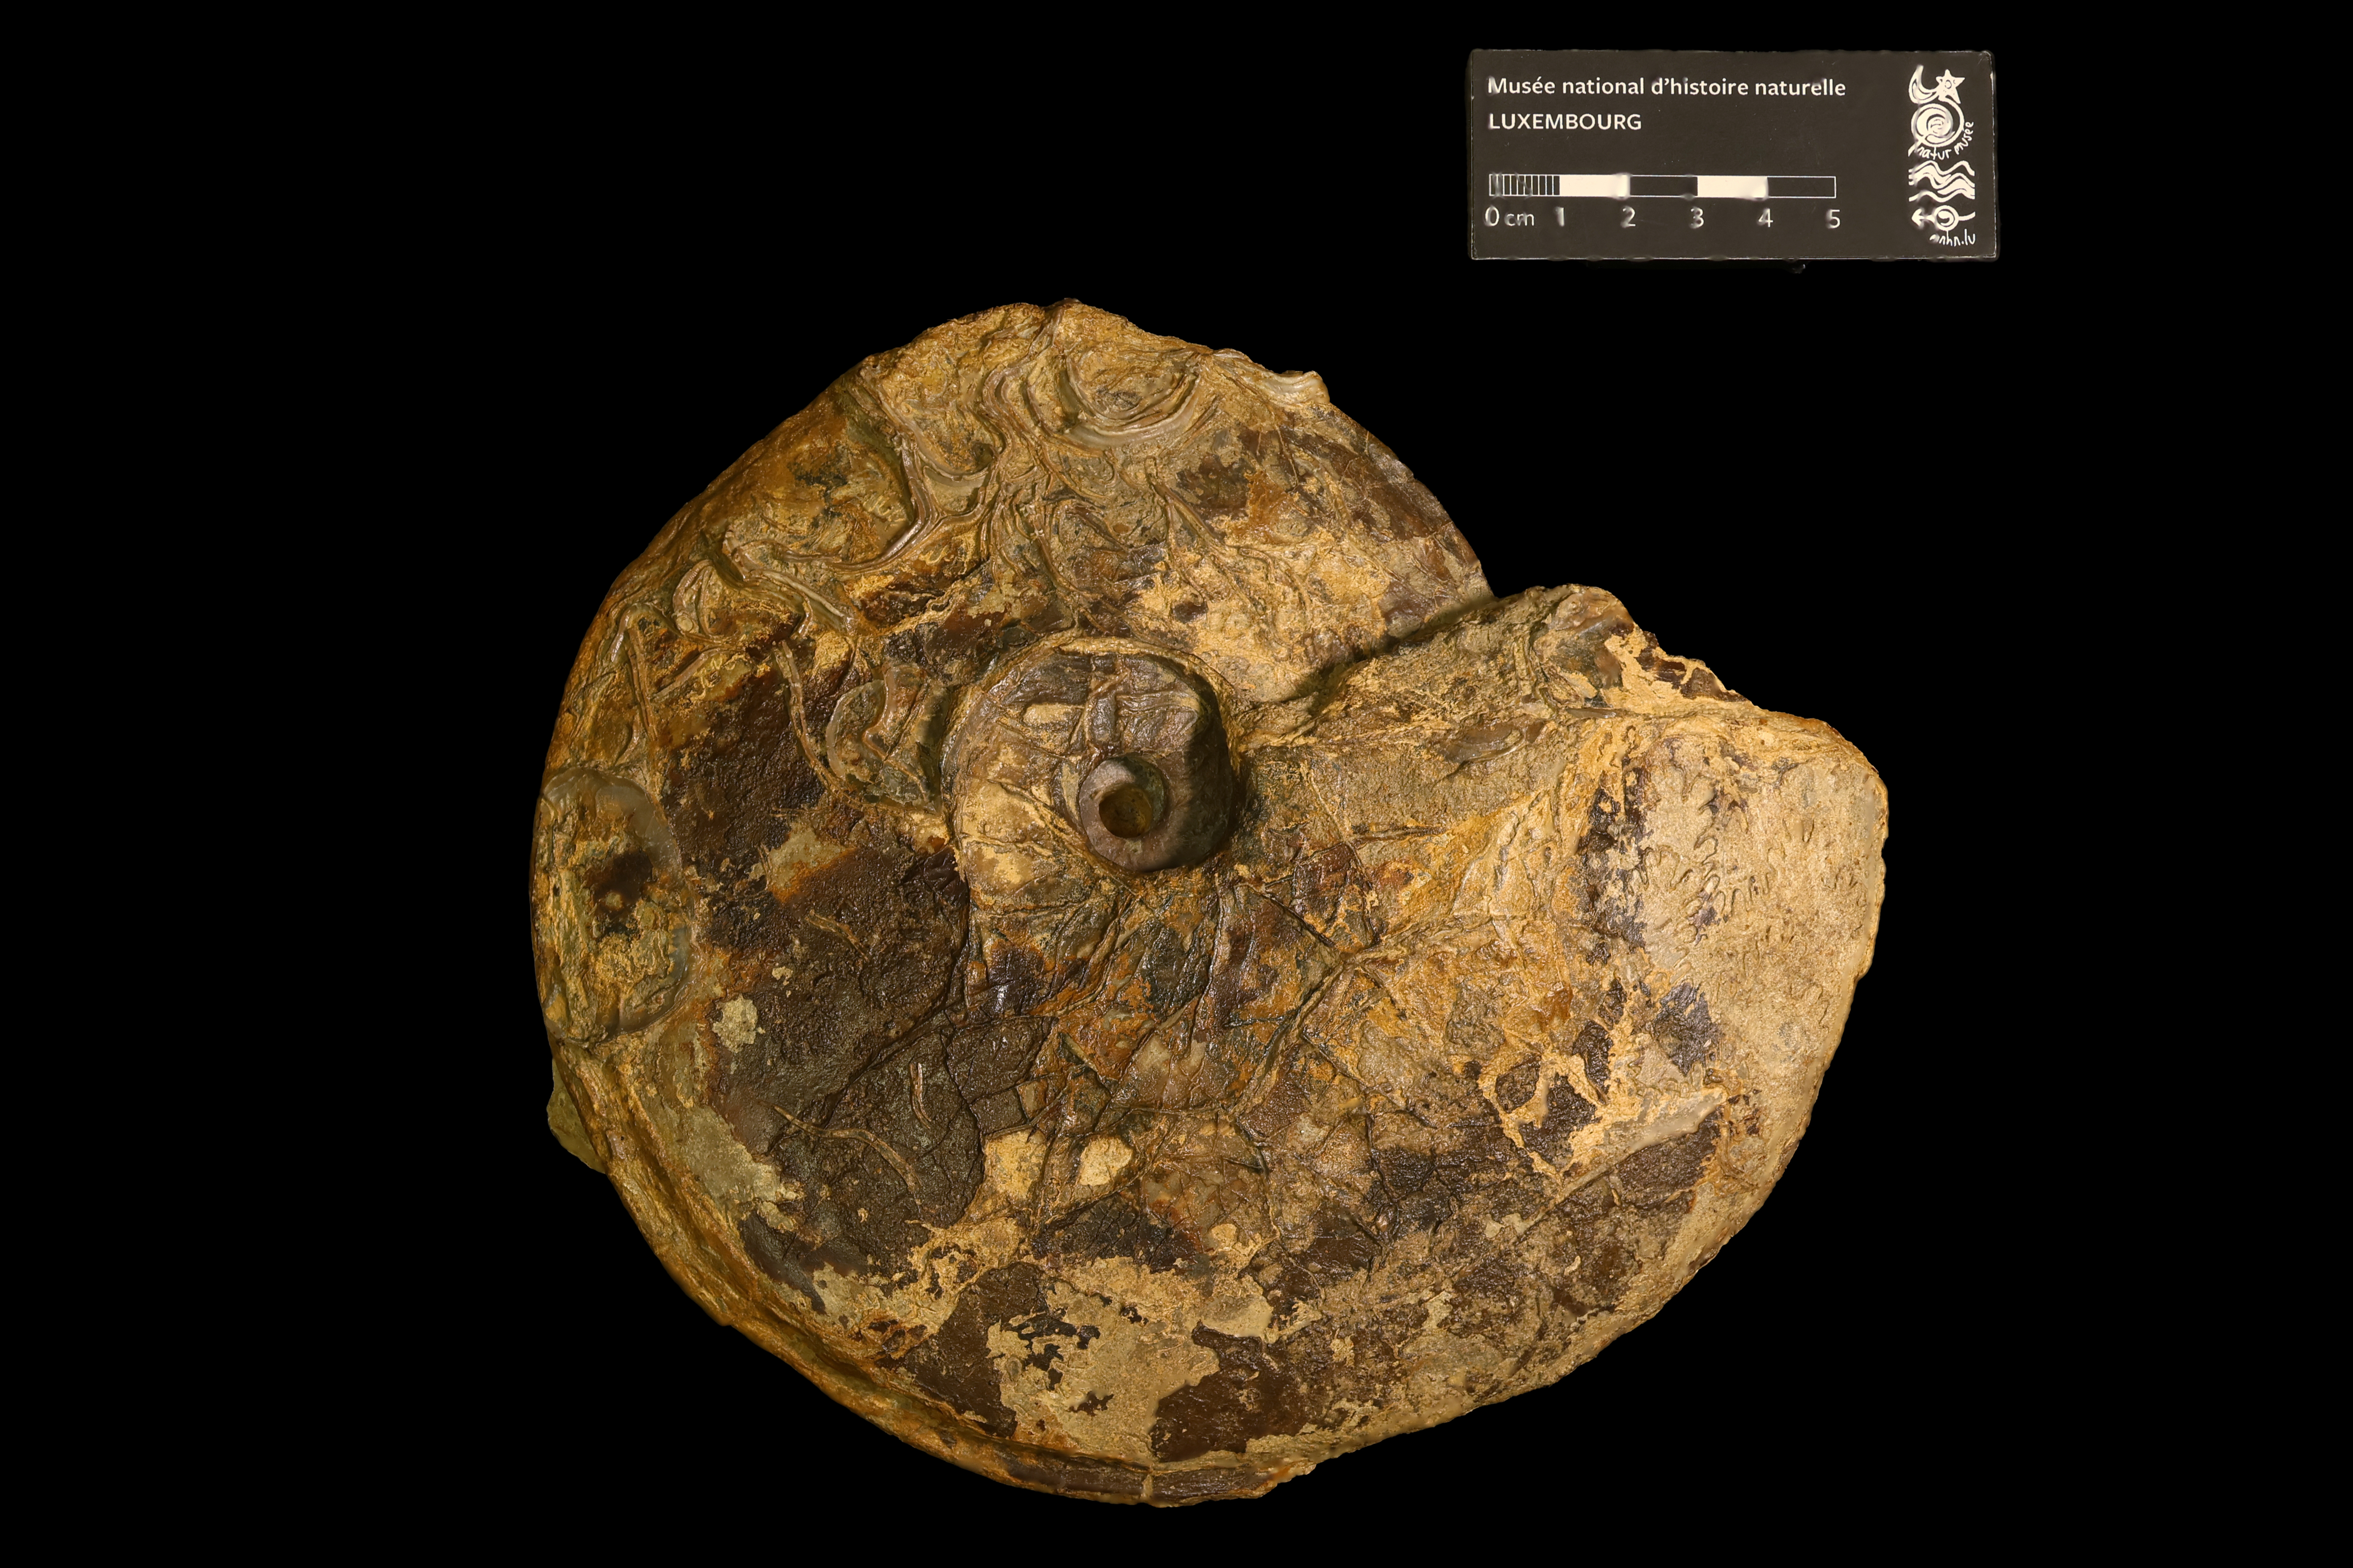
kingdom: Animalia
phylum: Mollusca
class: Cephalopoda
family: Graphoceratidae
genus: Hyperlioceras
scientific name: Hyperlioceras
